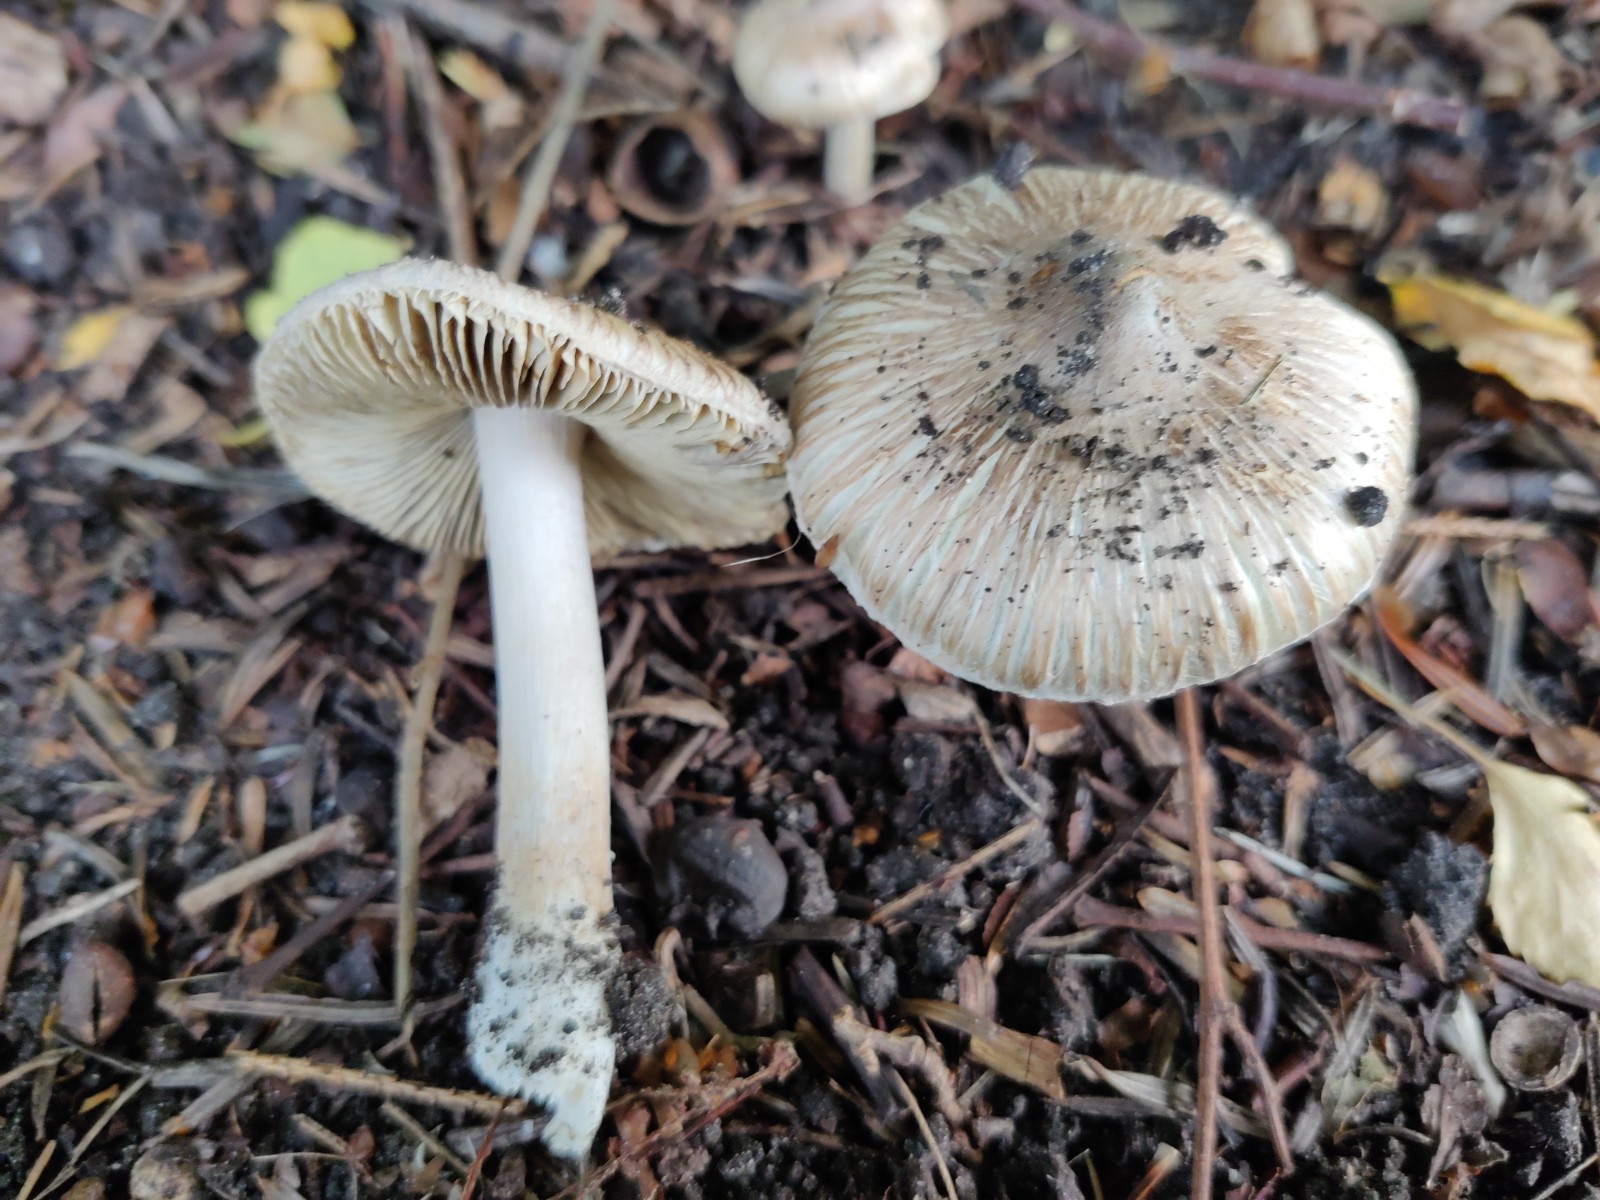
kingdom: Fungi
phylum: Basidiomycota
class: Agaricomycetes
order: Agaricales
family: Inocybaceae
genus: Pseudosperma
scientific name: Pseudosperma
